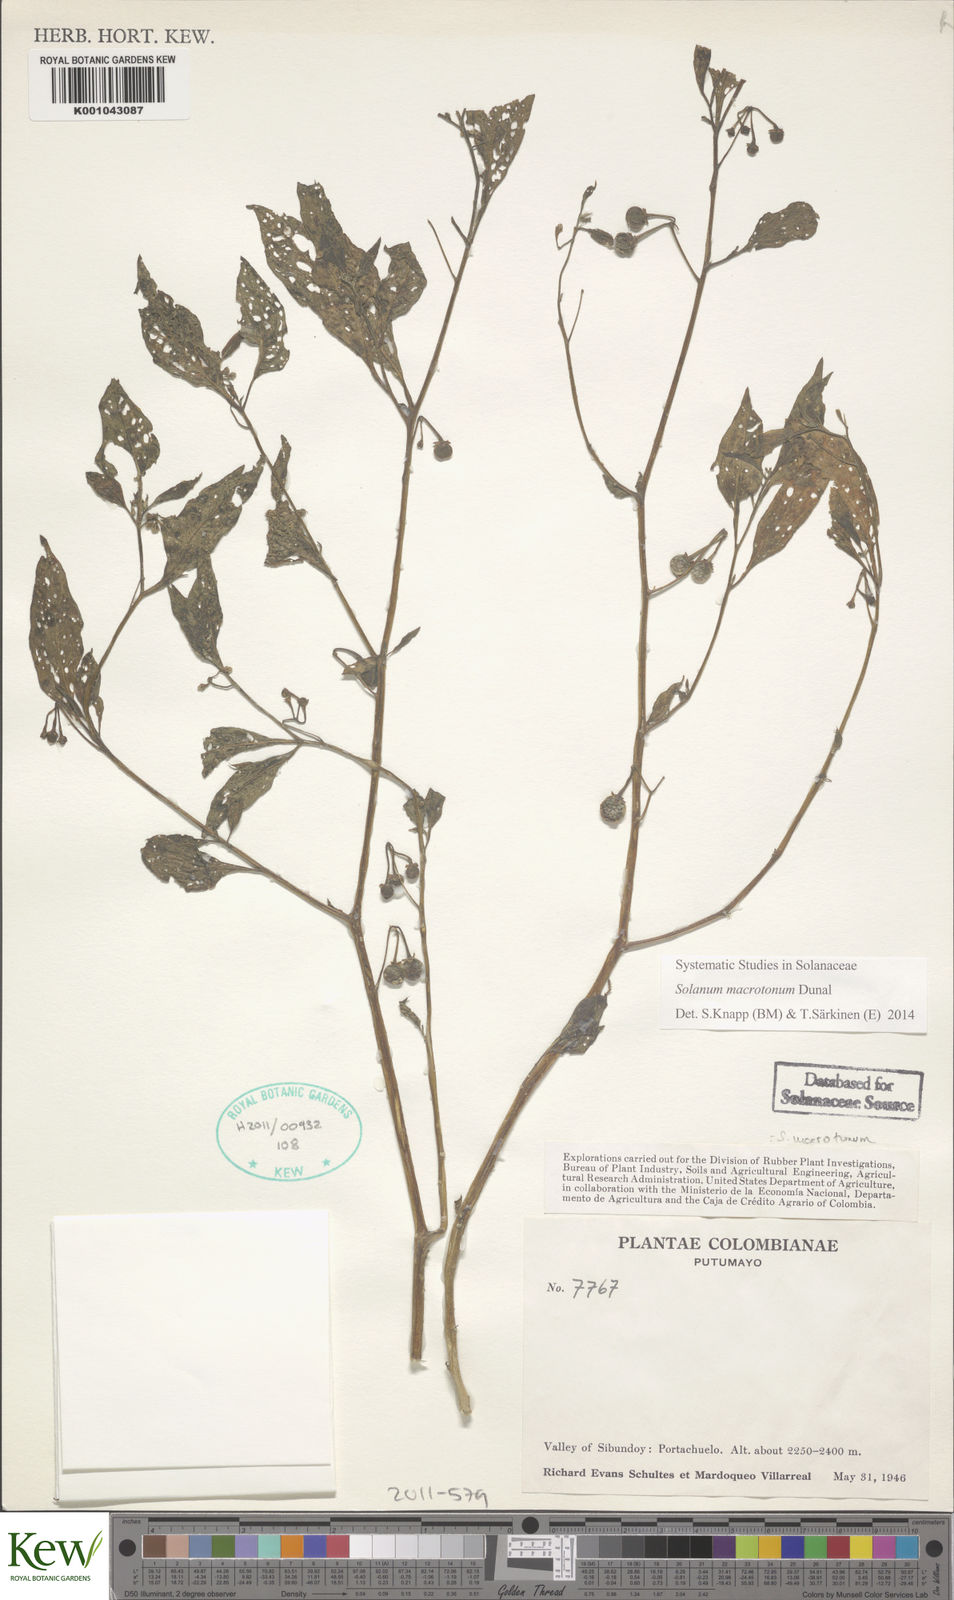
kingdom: Plantae
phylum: Tracheophyta
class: Magnoliopsida
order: Solanales
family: Solanaceae
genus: Solanum
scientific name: Solanum macrotonum
